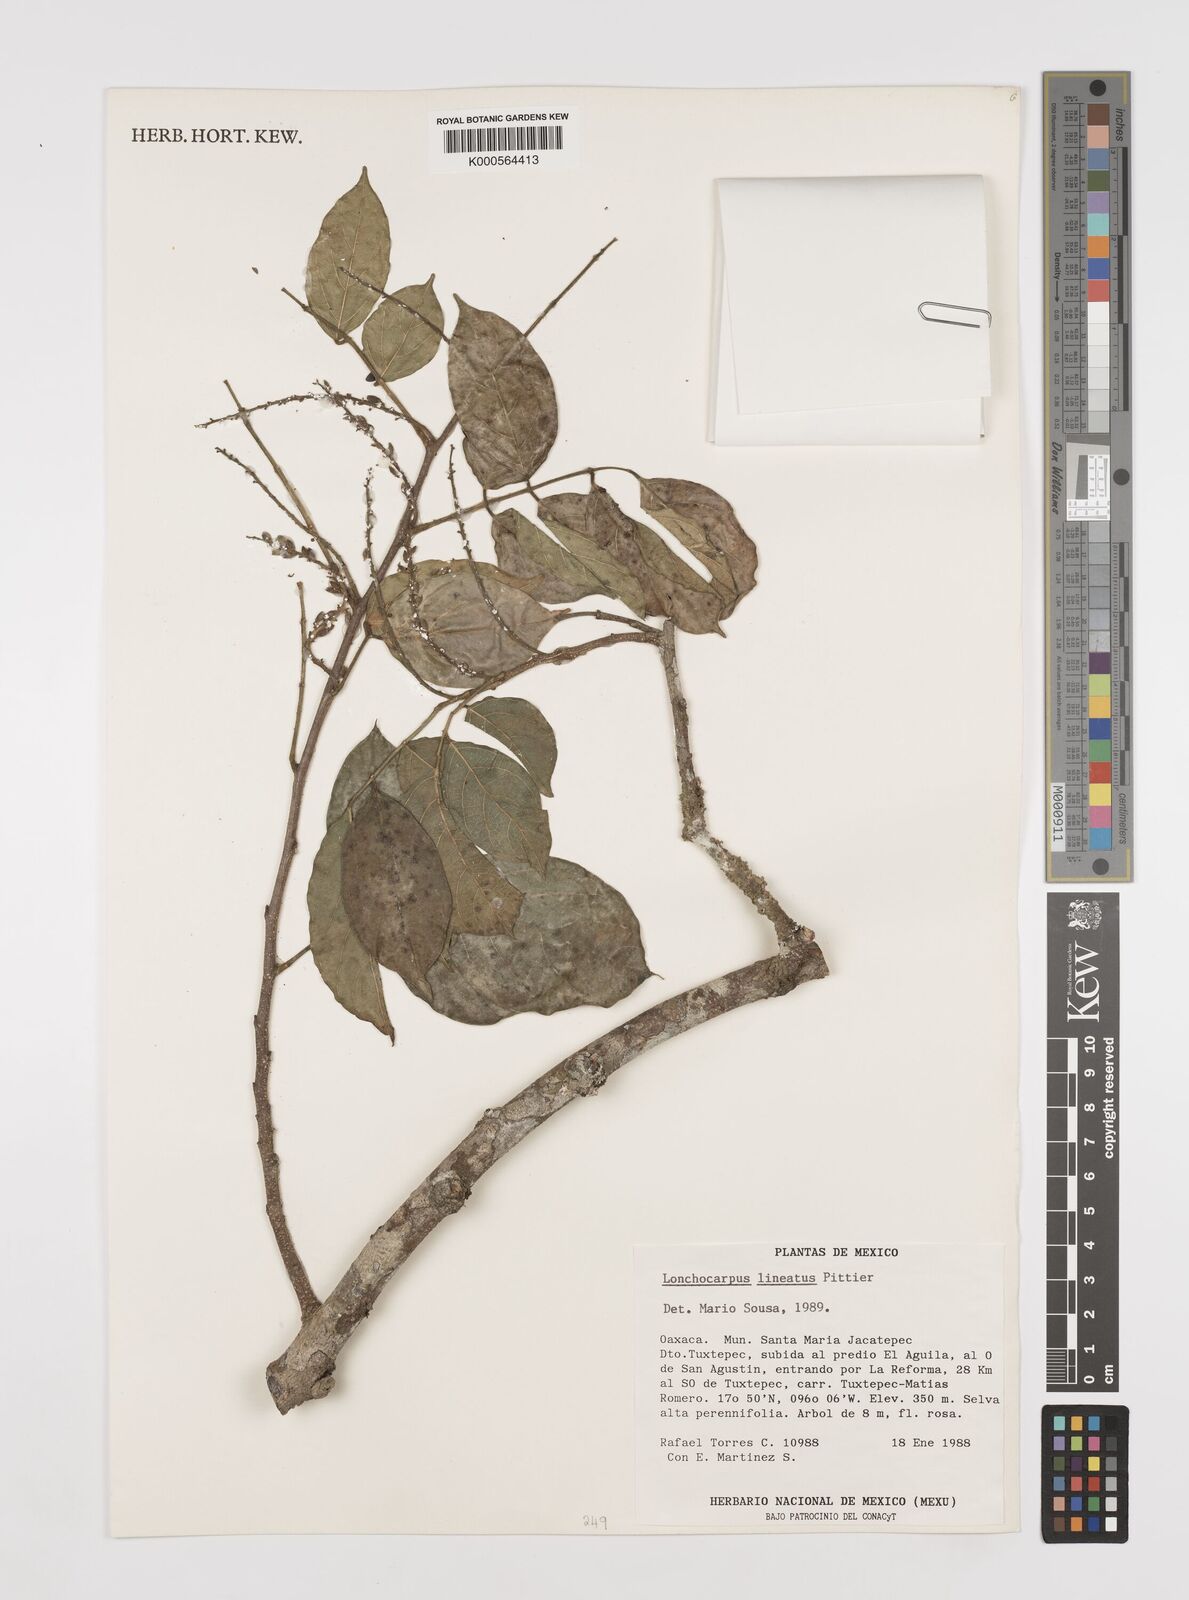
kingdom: Plantae
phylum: Tracheophyta
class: Magnoliopsida
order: Fabales
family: Fabaceae
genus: Lonchocarpus
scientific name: Lonchocarpus lineatus
